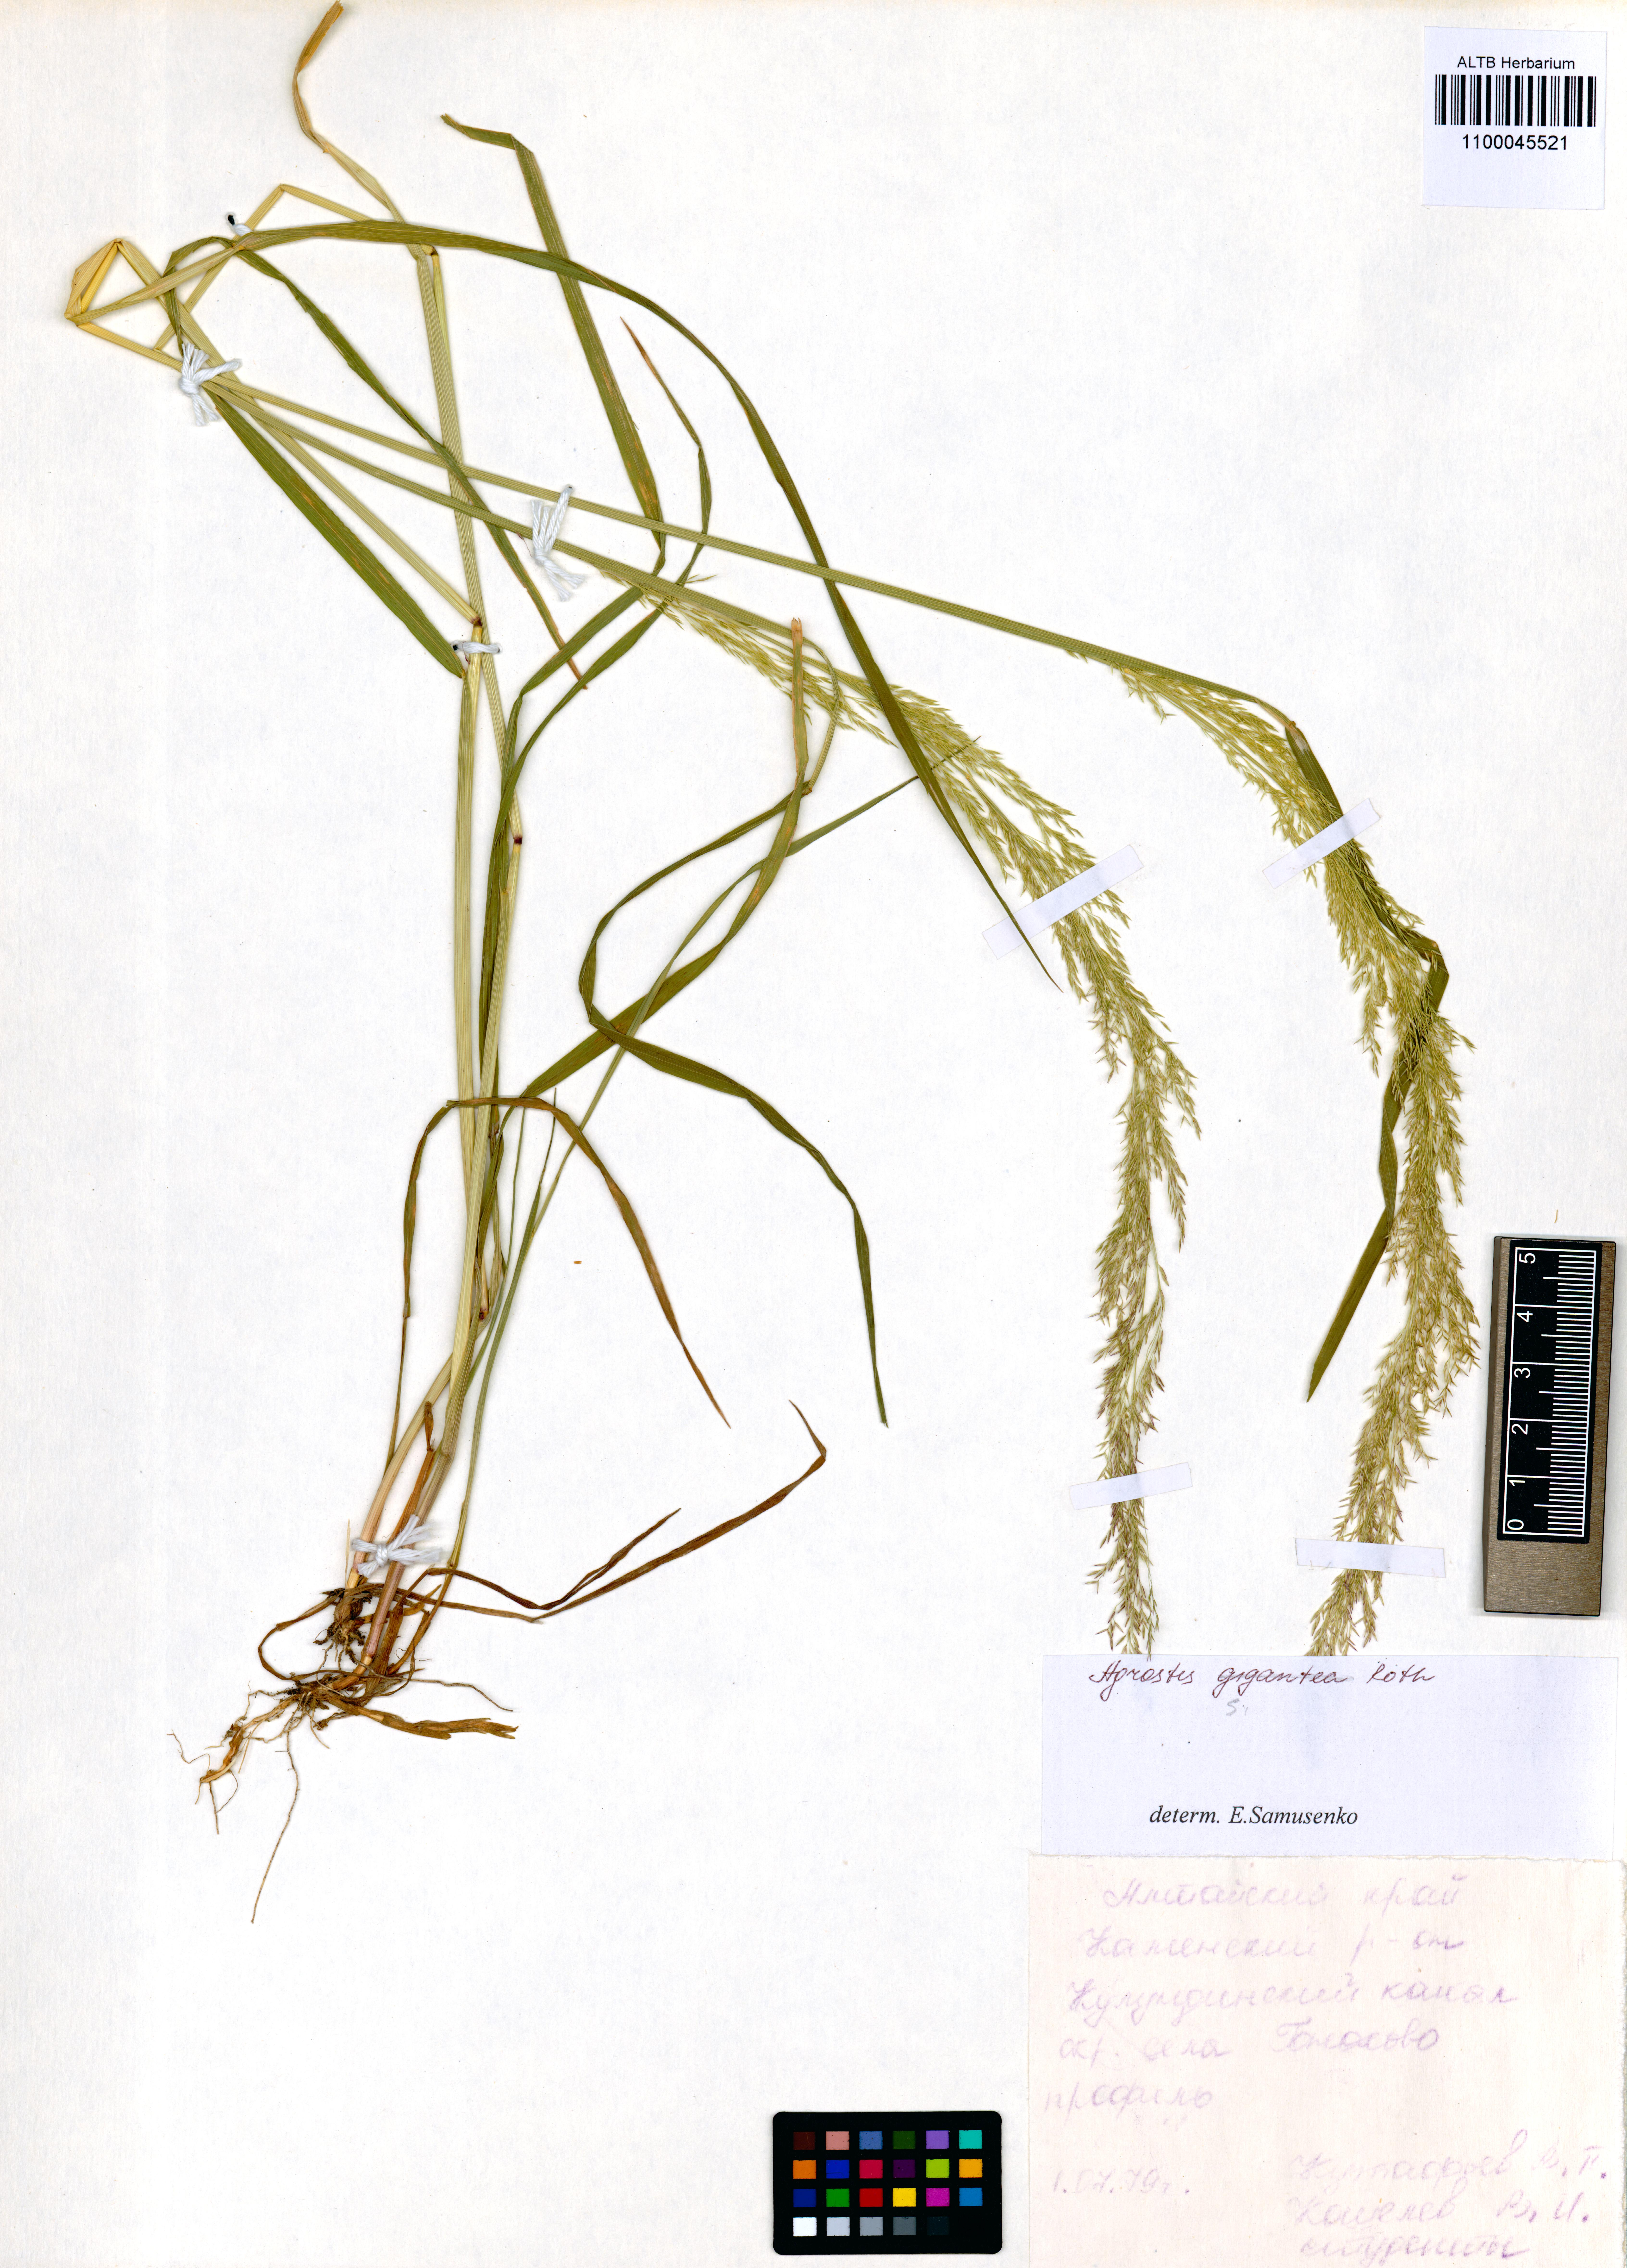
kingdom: Plantae
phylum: Tracheophyta
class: Liliopsida
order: Poales
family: Poaceae
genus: Agrostis
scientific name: Agrostis gigantea
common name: Black bent
